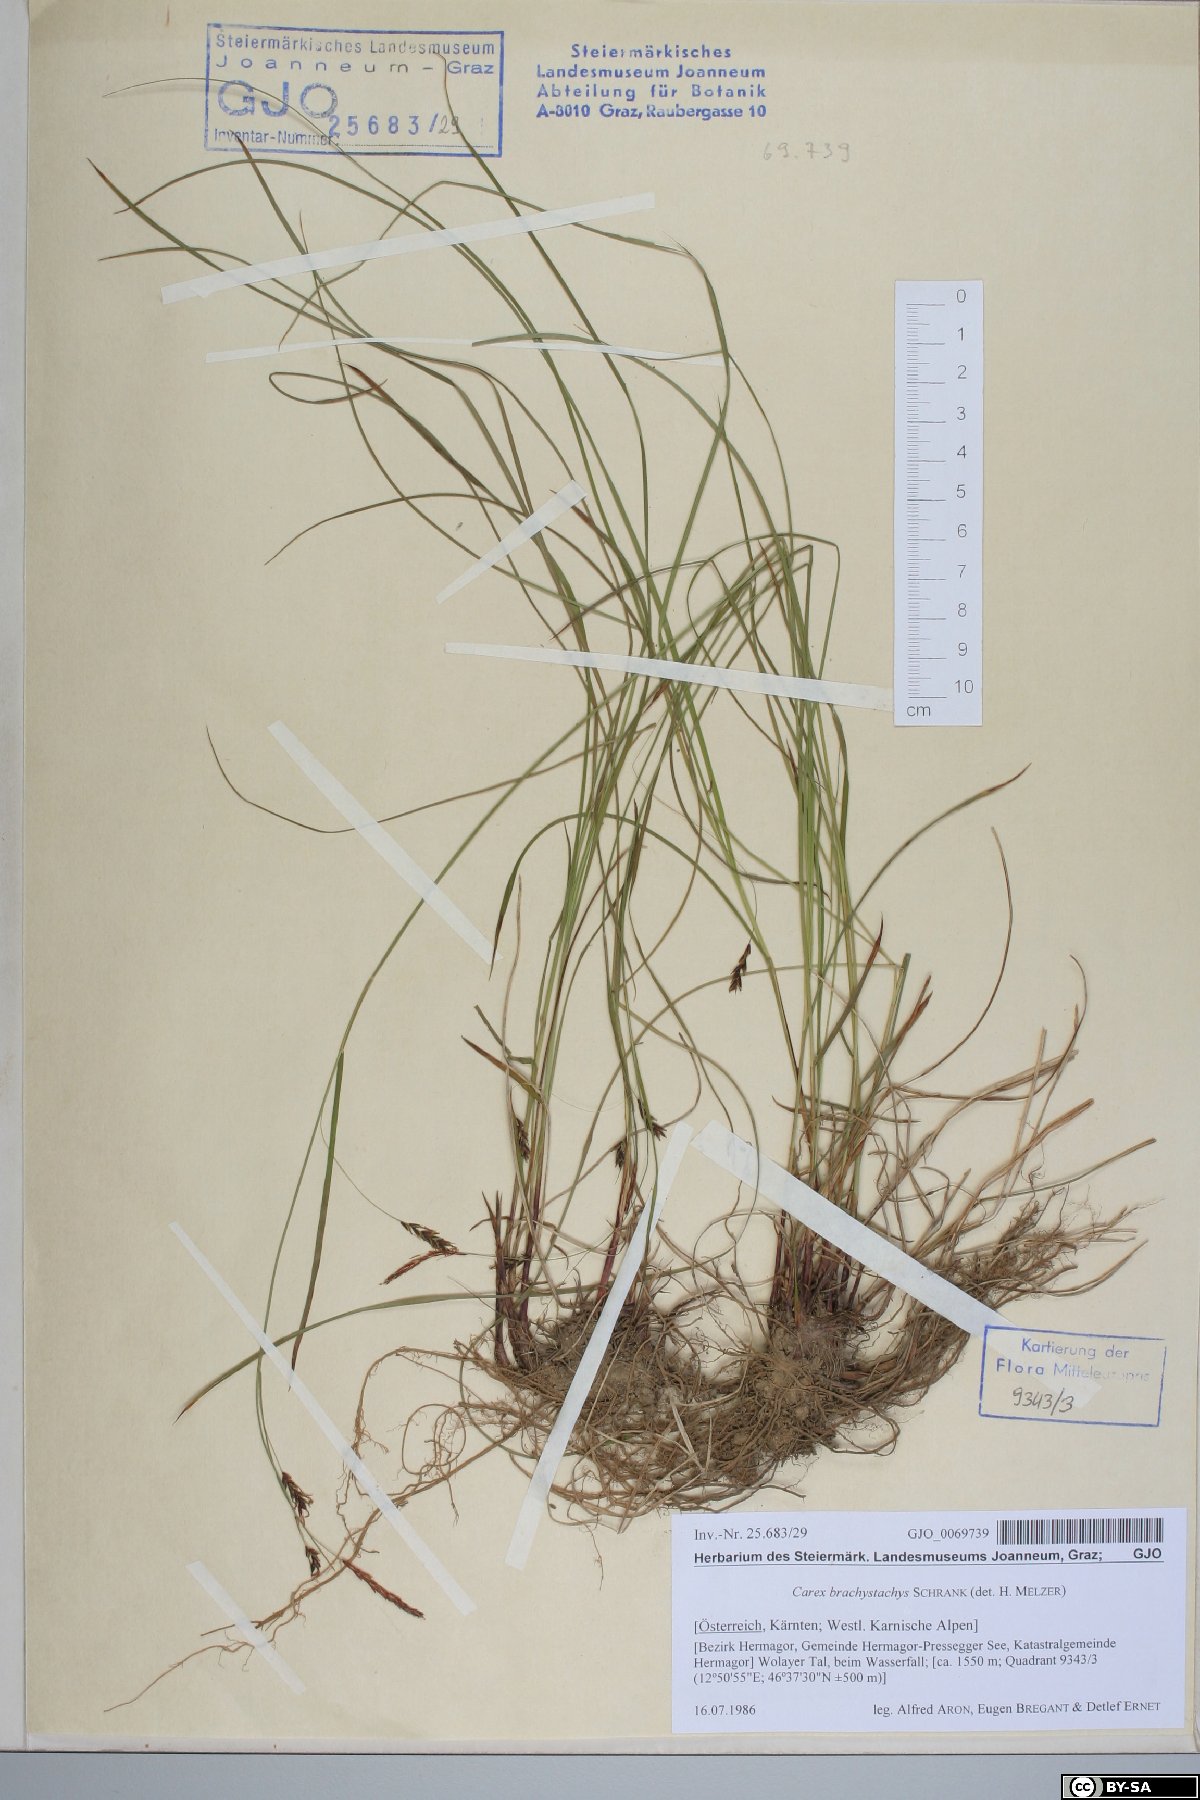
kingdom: Plantae
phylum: Tracheophyta
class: Liliopsida
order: Poales
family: Cyperaceae
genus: Carex
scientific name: Carex brachystachys
